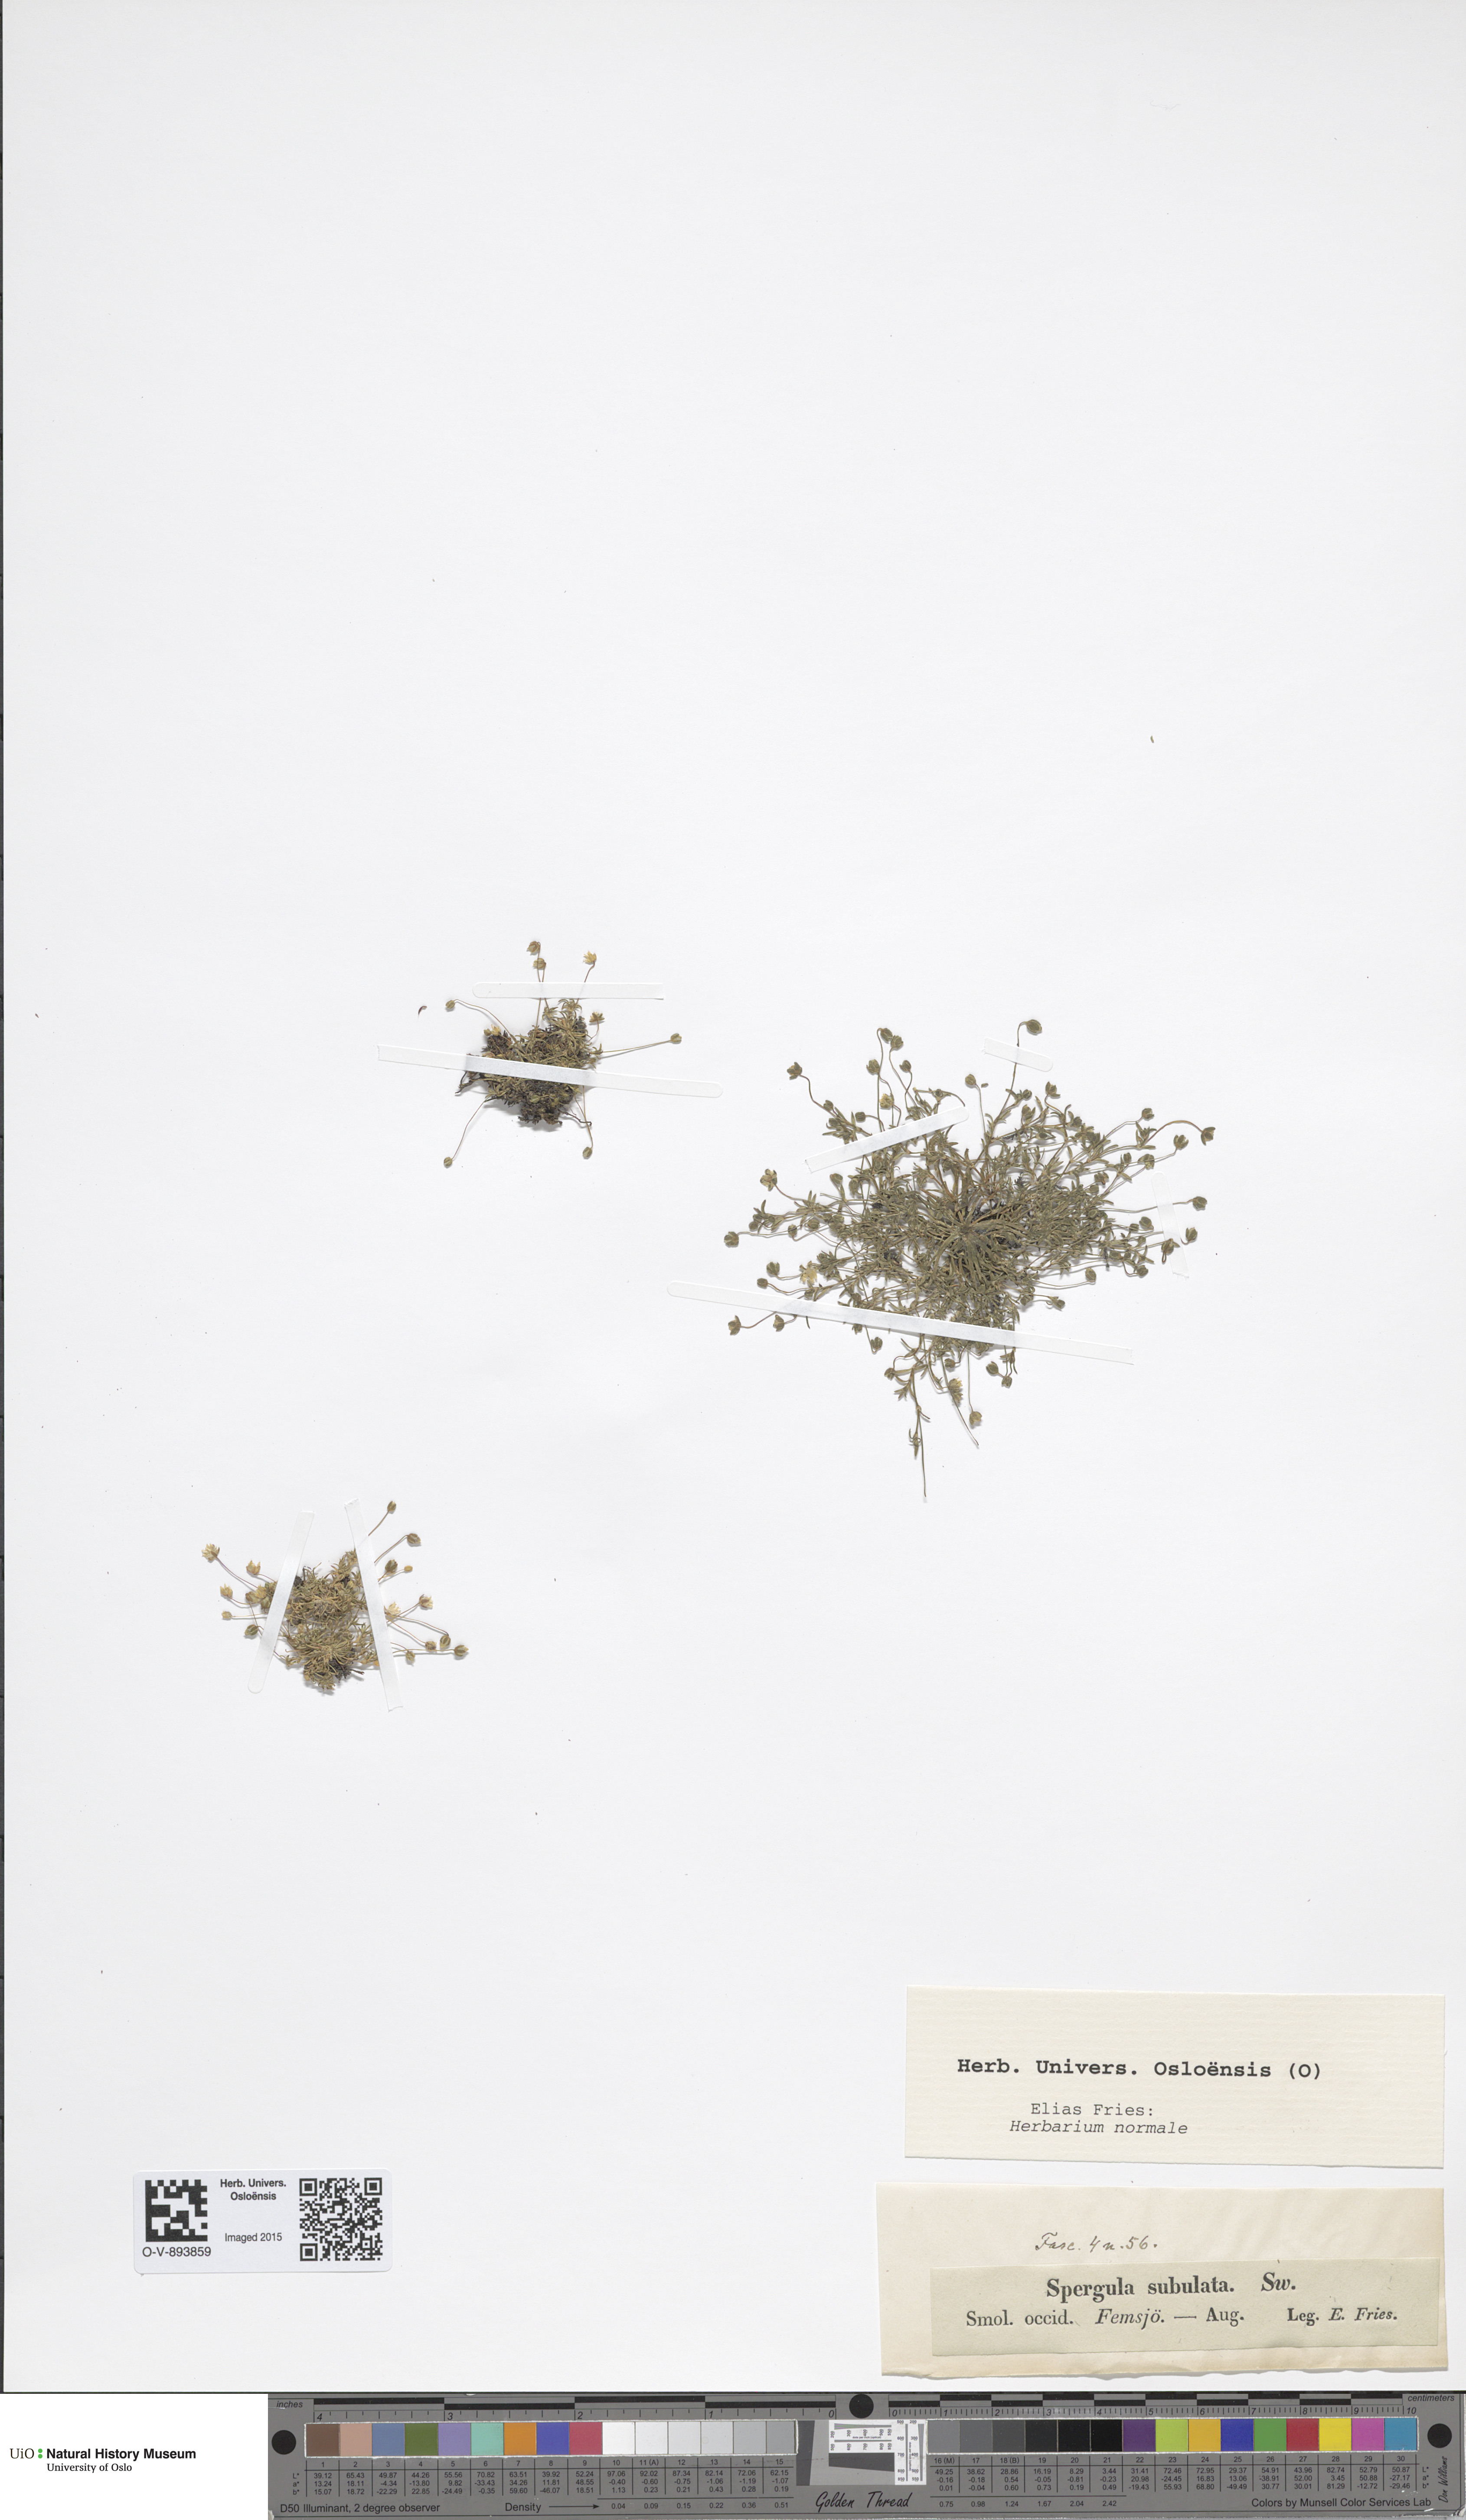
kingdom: Plantae
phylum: Tracheophyta
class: Magnoliopsida
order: Caryophyllales
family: Caryophyllaceae
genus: Sagina
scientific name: Sagina alexandrae
